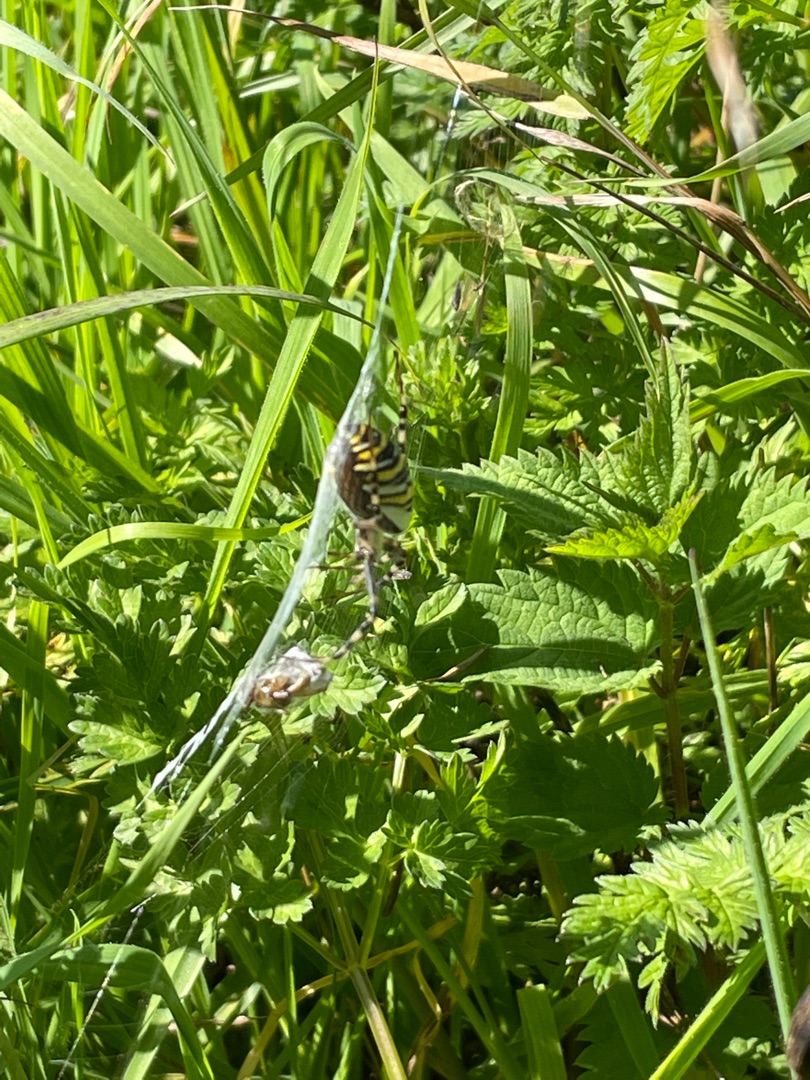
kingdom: Animalia
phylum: Arthropoda
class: Arachnida
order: Araneae
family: Araneidae
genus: Argiope
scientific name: Argiope bruennichi
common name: Hvepseedderkop
